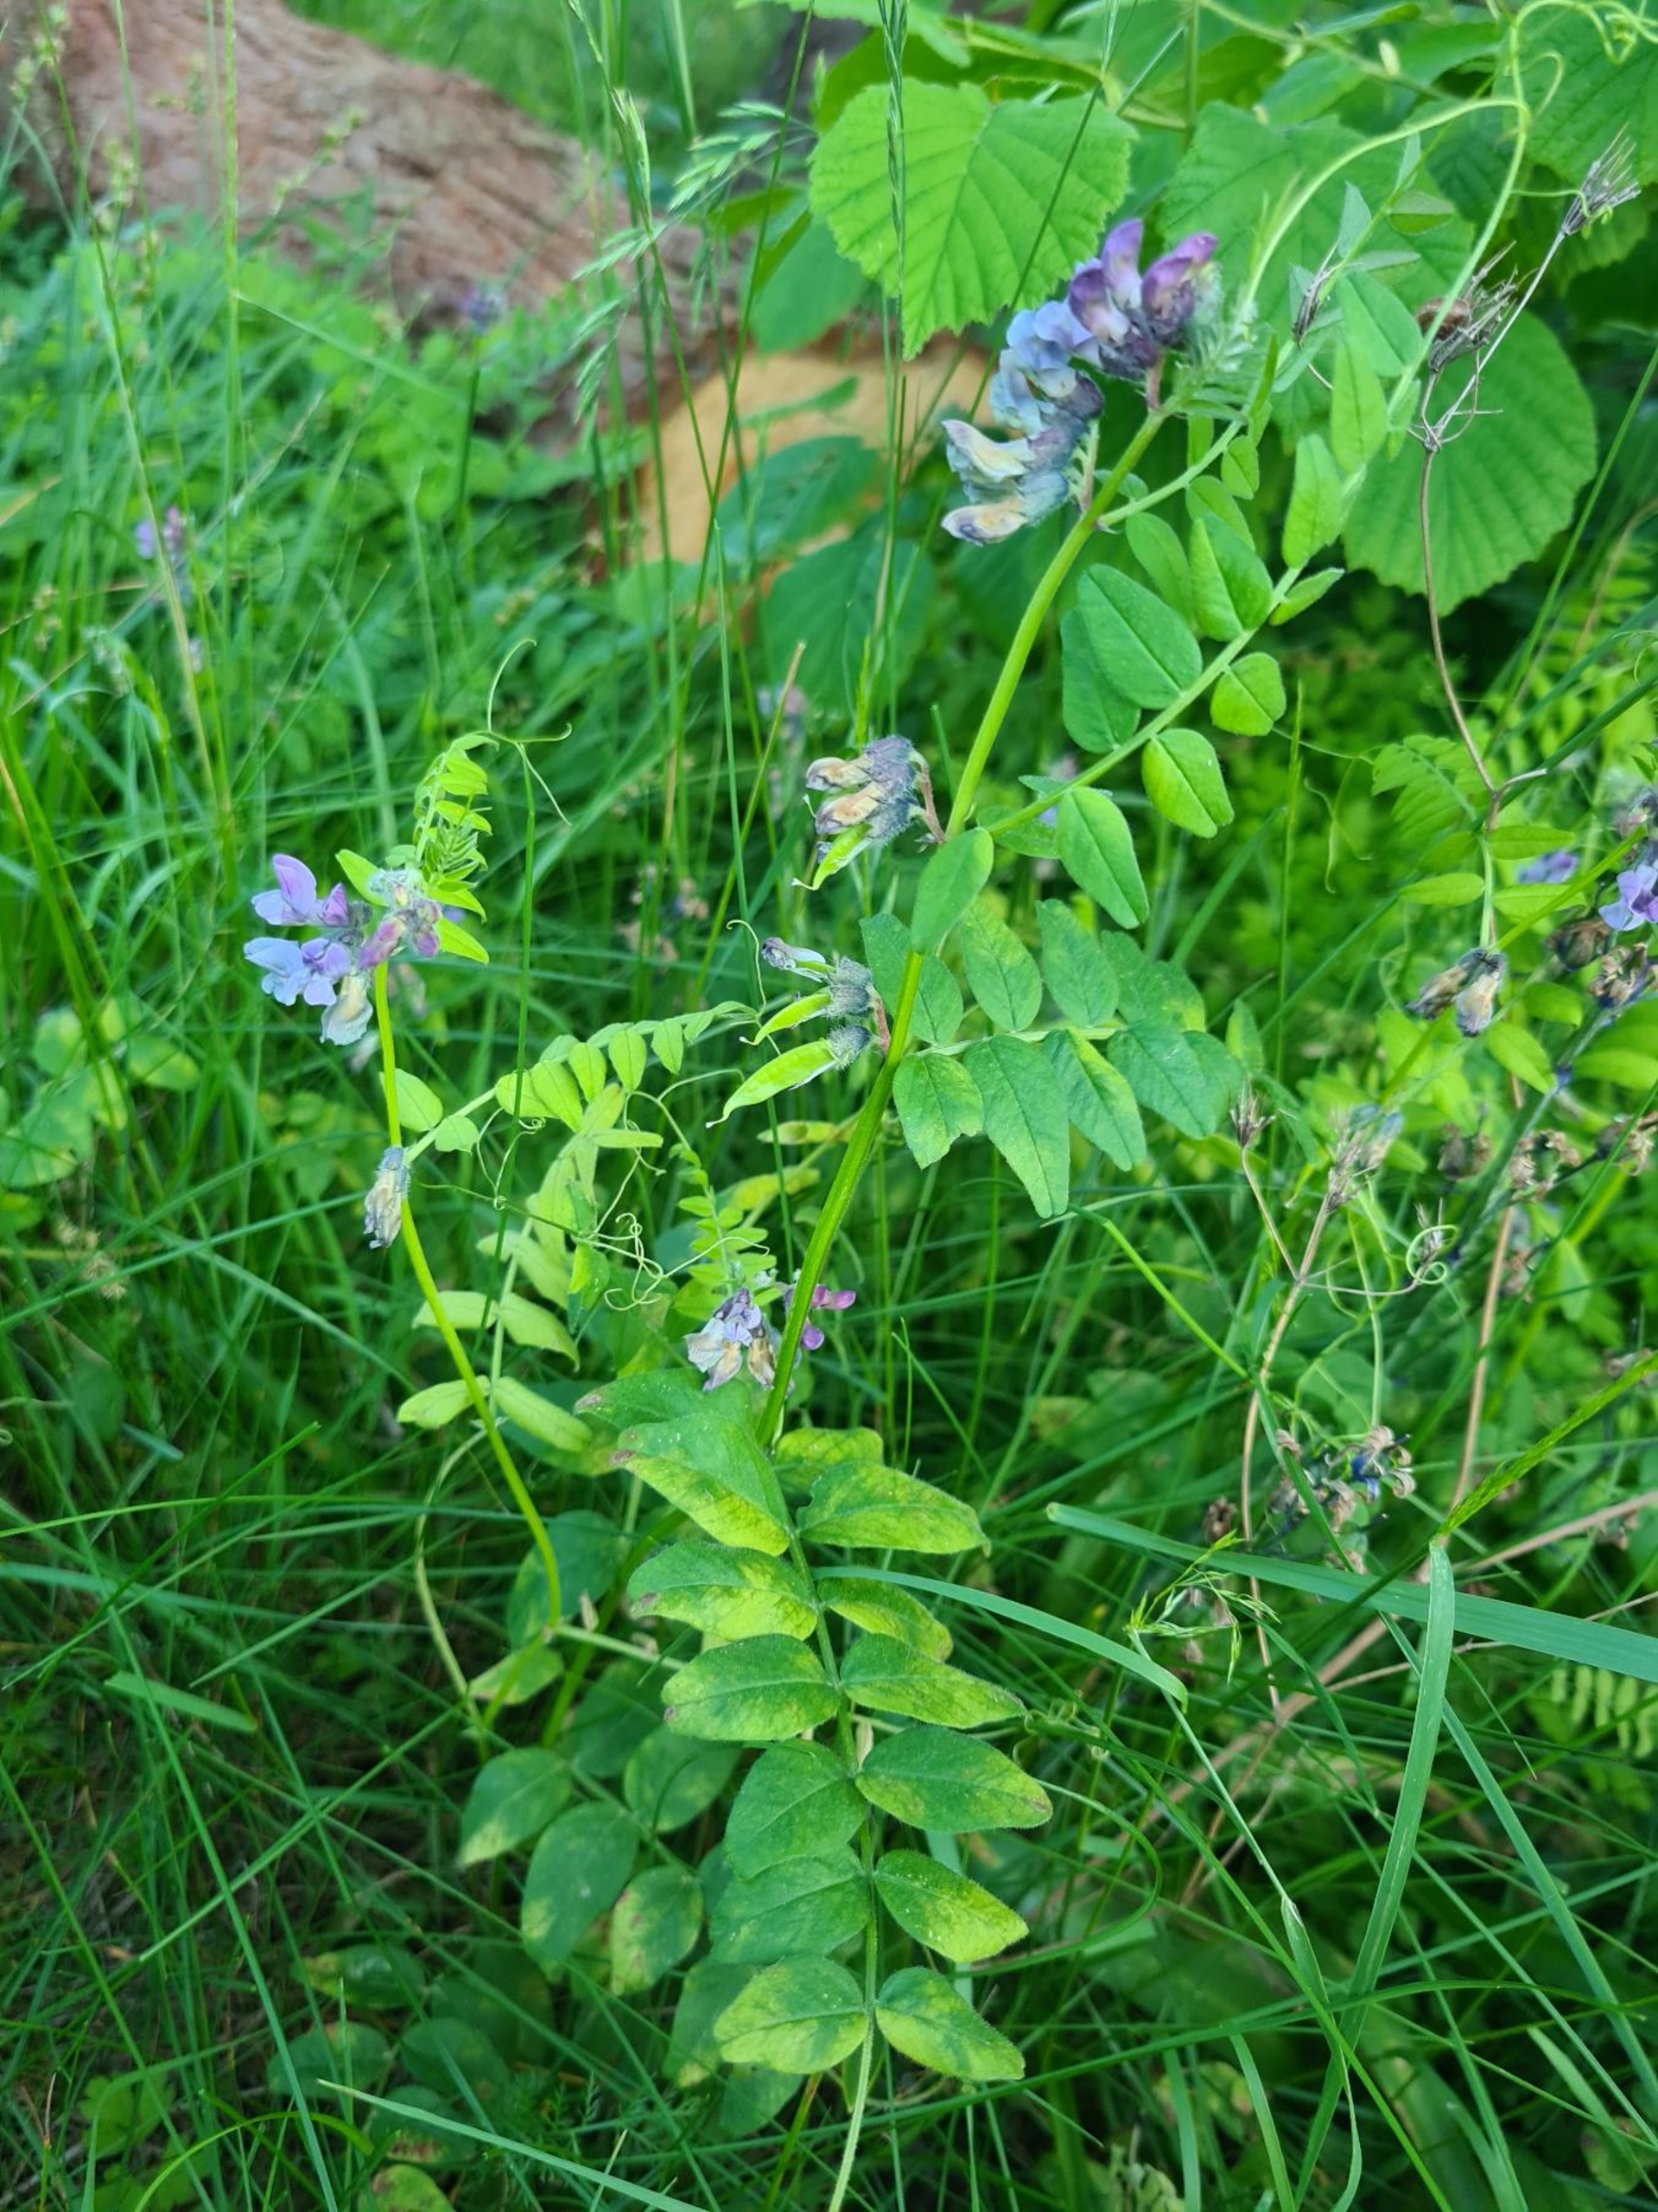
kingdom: Plantae
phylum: Tracheophyta
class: Magnoliopsida
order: Fabales
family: Fabaceae
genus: Vicia
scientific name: Vicia sepium
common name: Gærde-vikke
